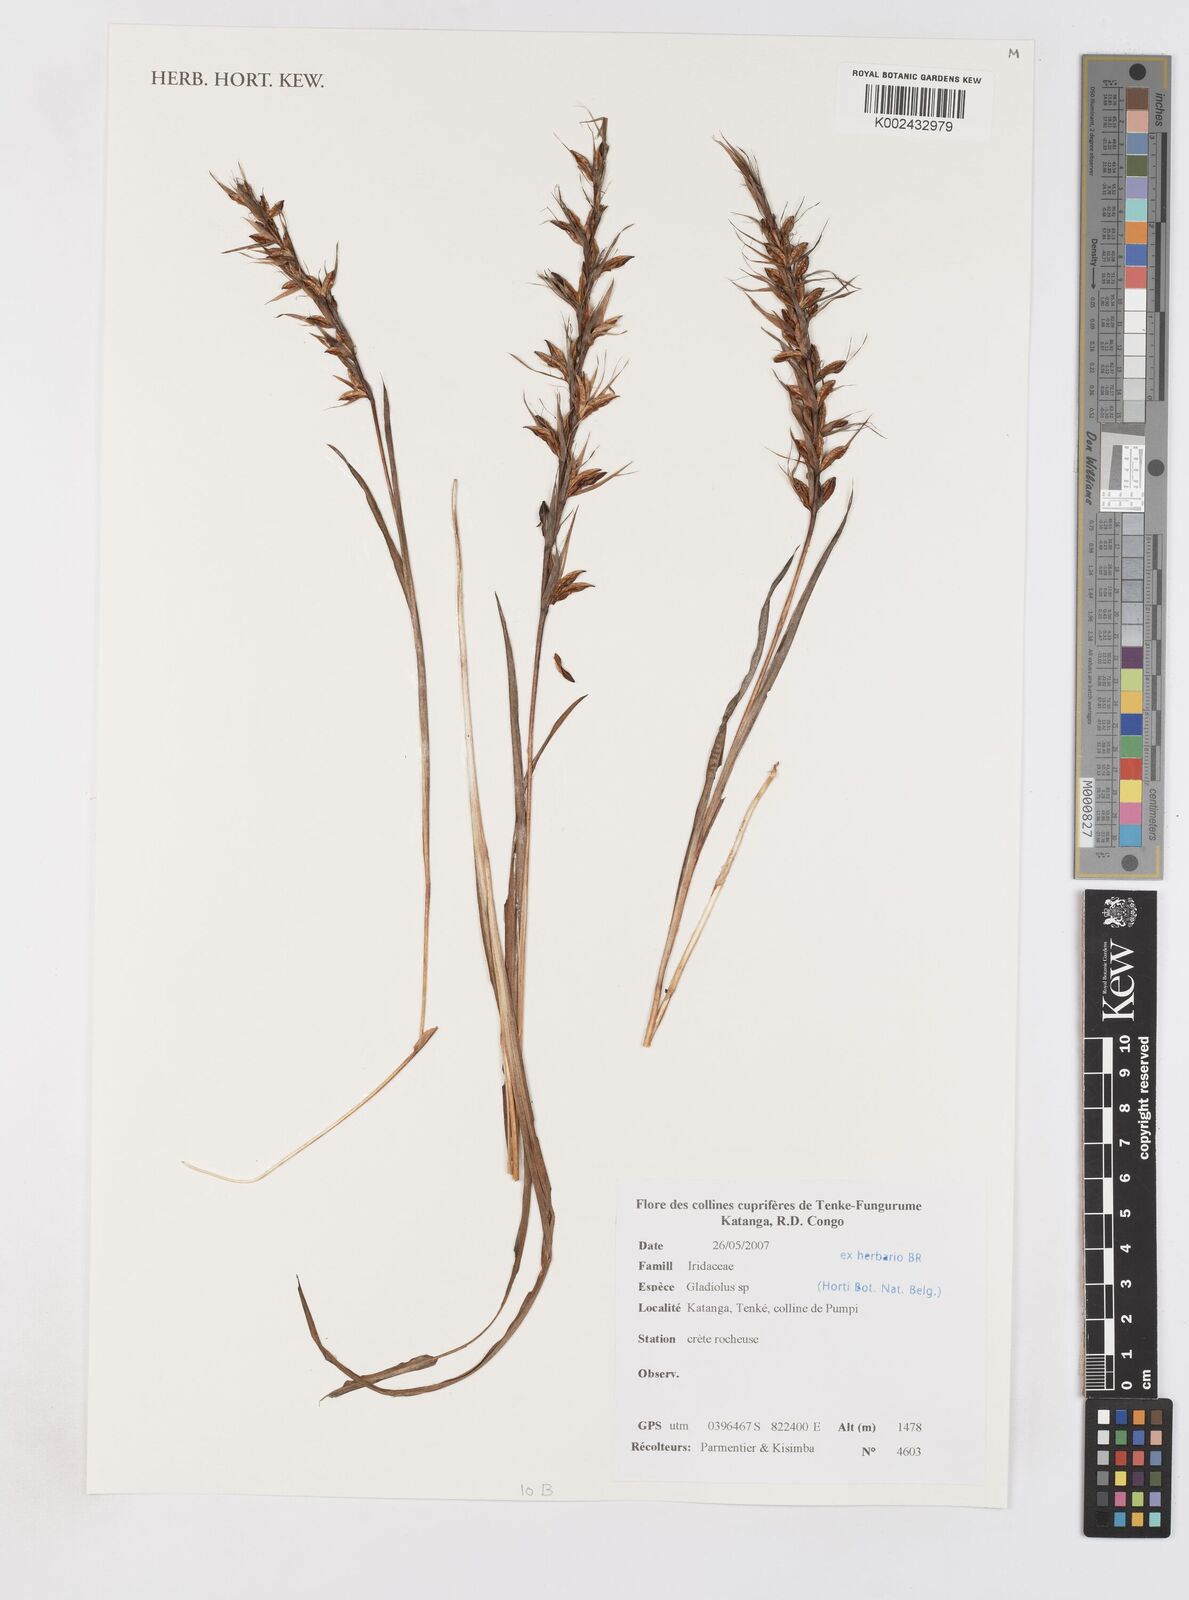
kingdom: Plantae
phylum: Tracheophyta
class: Liliopsida
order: Asparagales
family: Iridaceae
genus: Gladiolus
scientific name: Gladiolus
